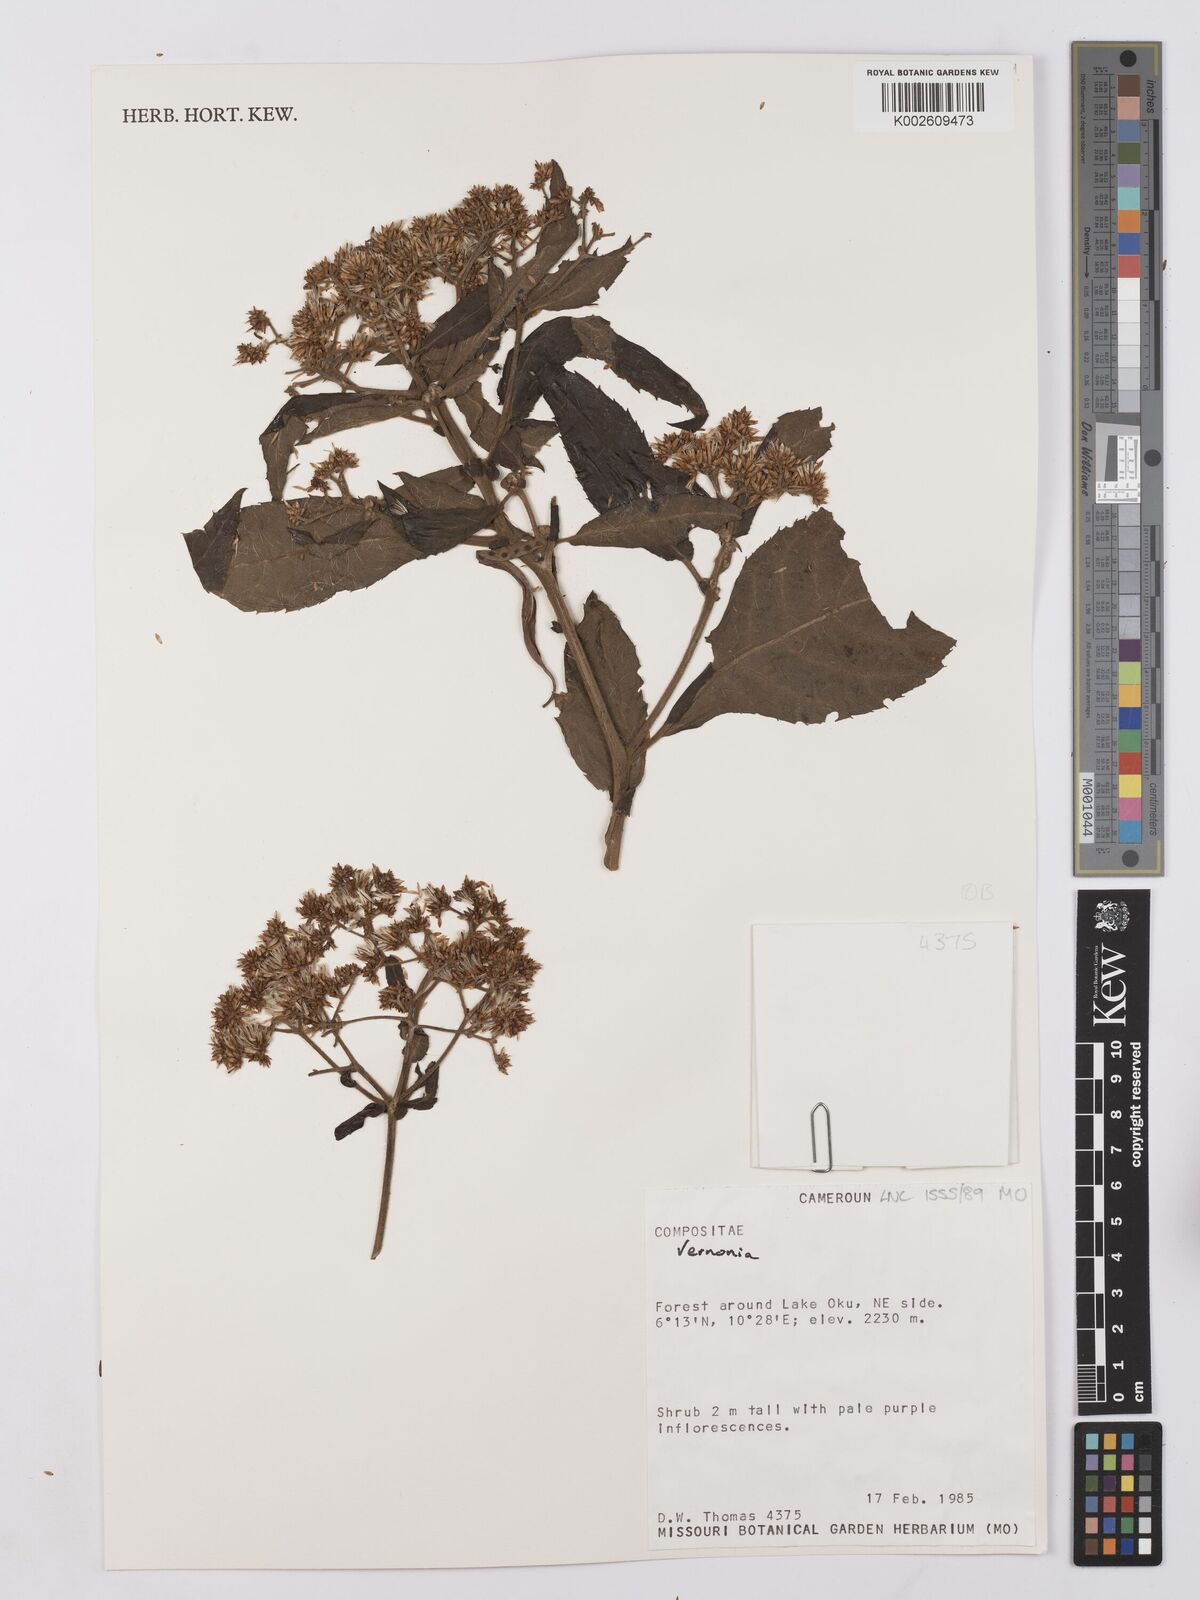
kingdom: Plantae
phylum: Tracheophyta
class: Magnoliopsida
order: Asterales
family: Asteraceae
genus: Vernonia
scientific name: Vernonia
